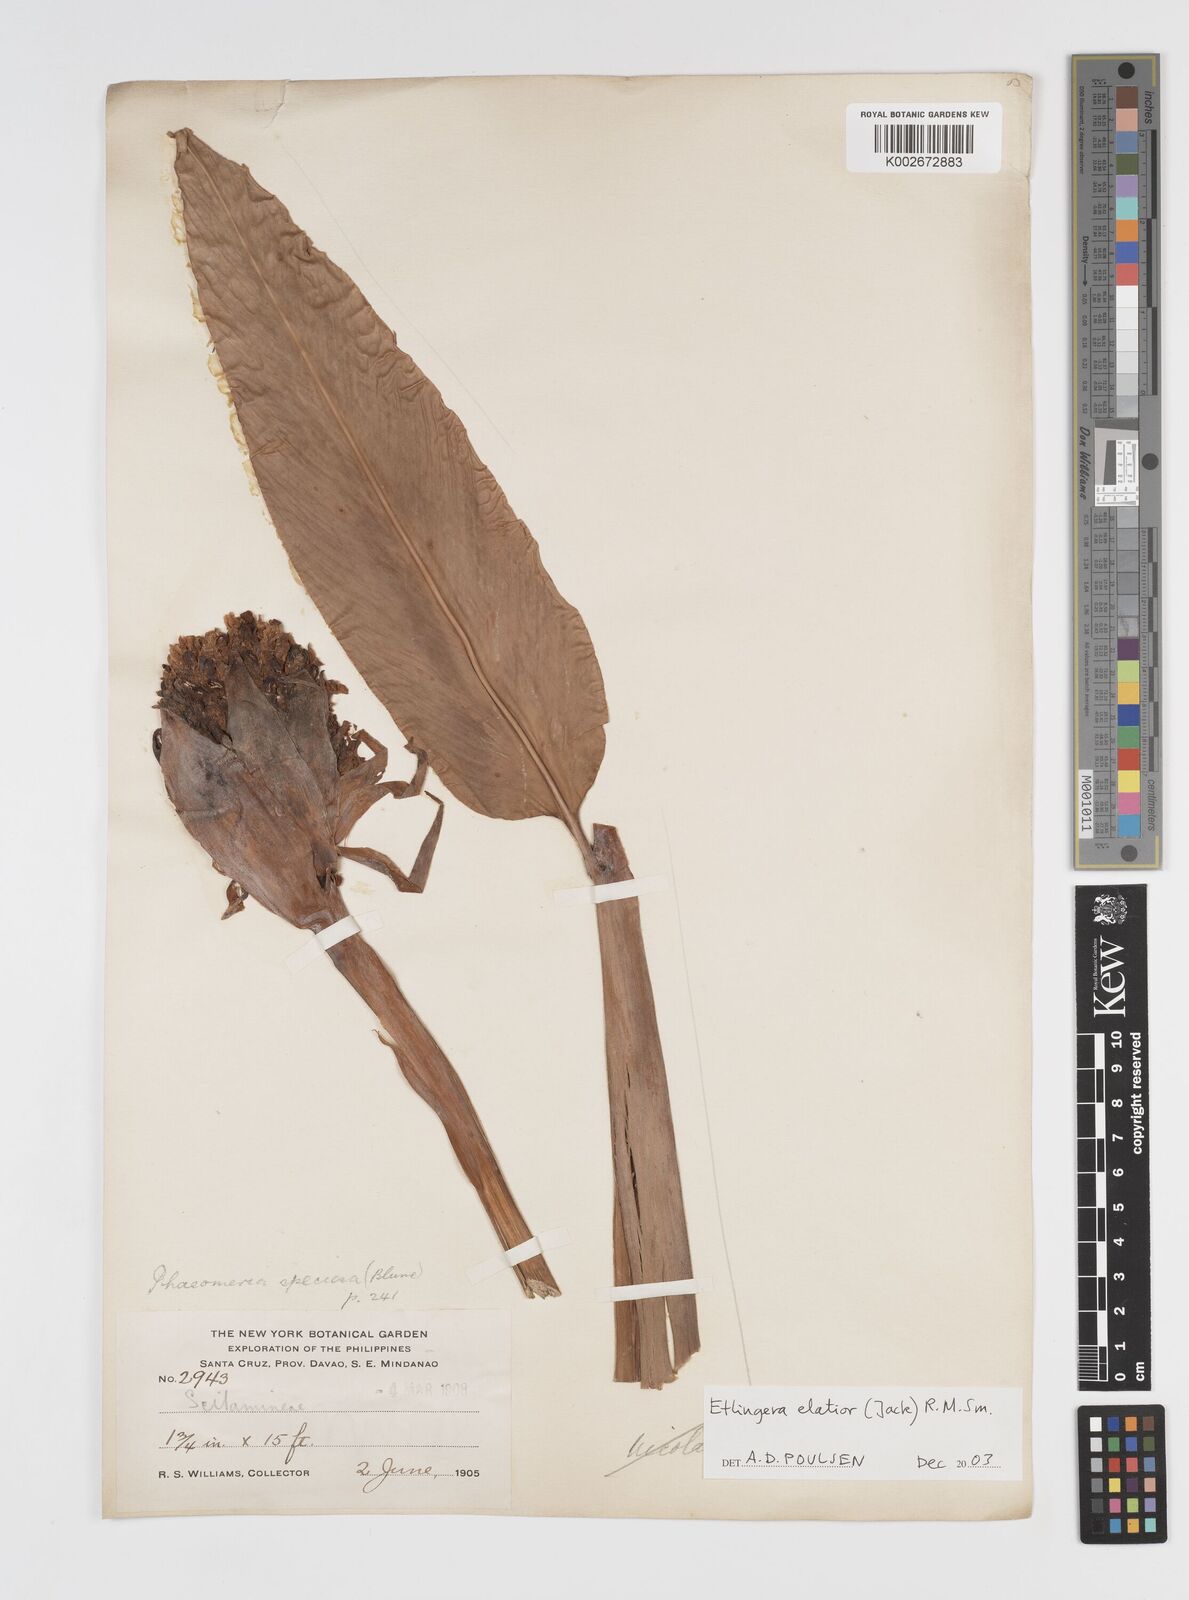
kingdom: Plantae
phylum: Tracheophyta
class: Liliopsida
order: Zingiberales
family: Zingiberaceae
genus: Etlingera
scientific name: Etlingera
